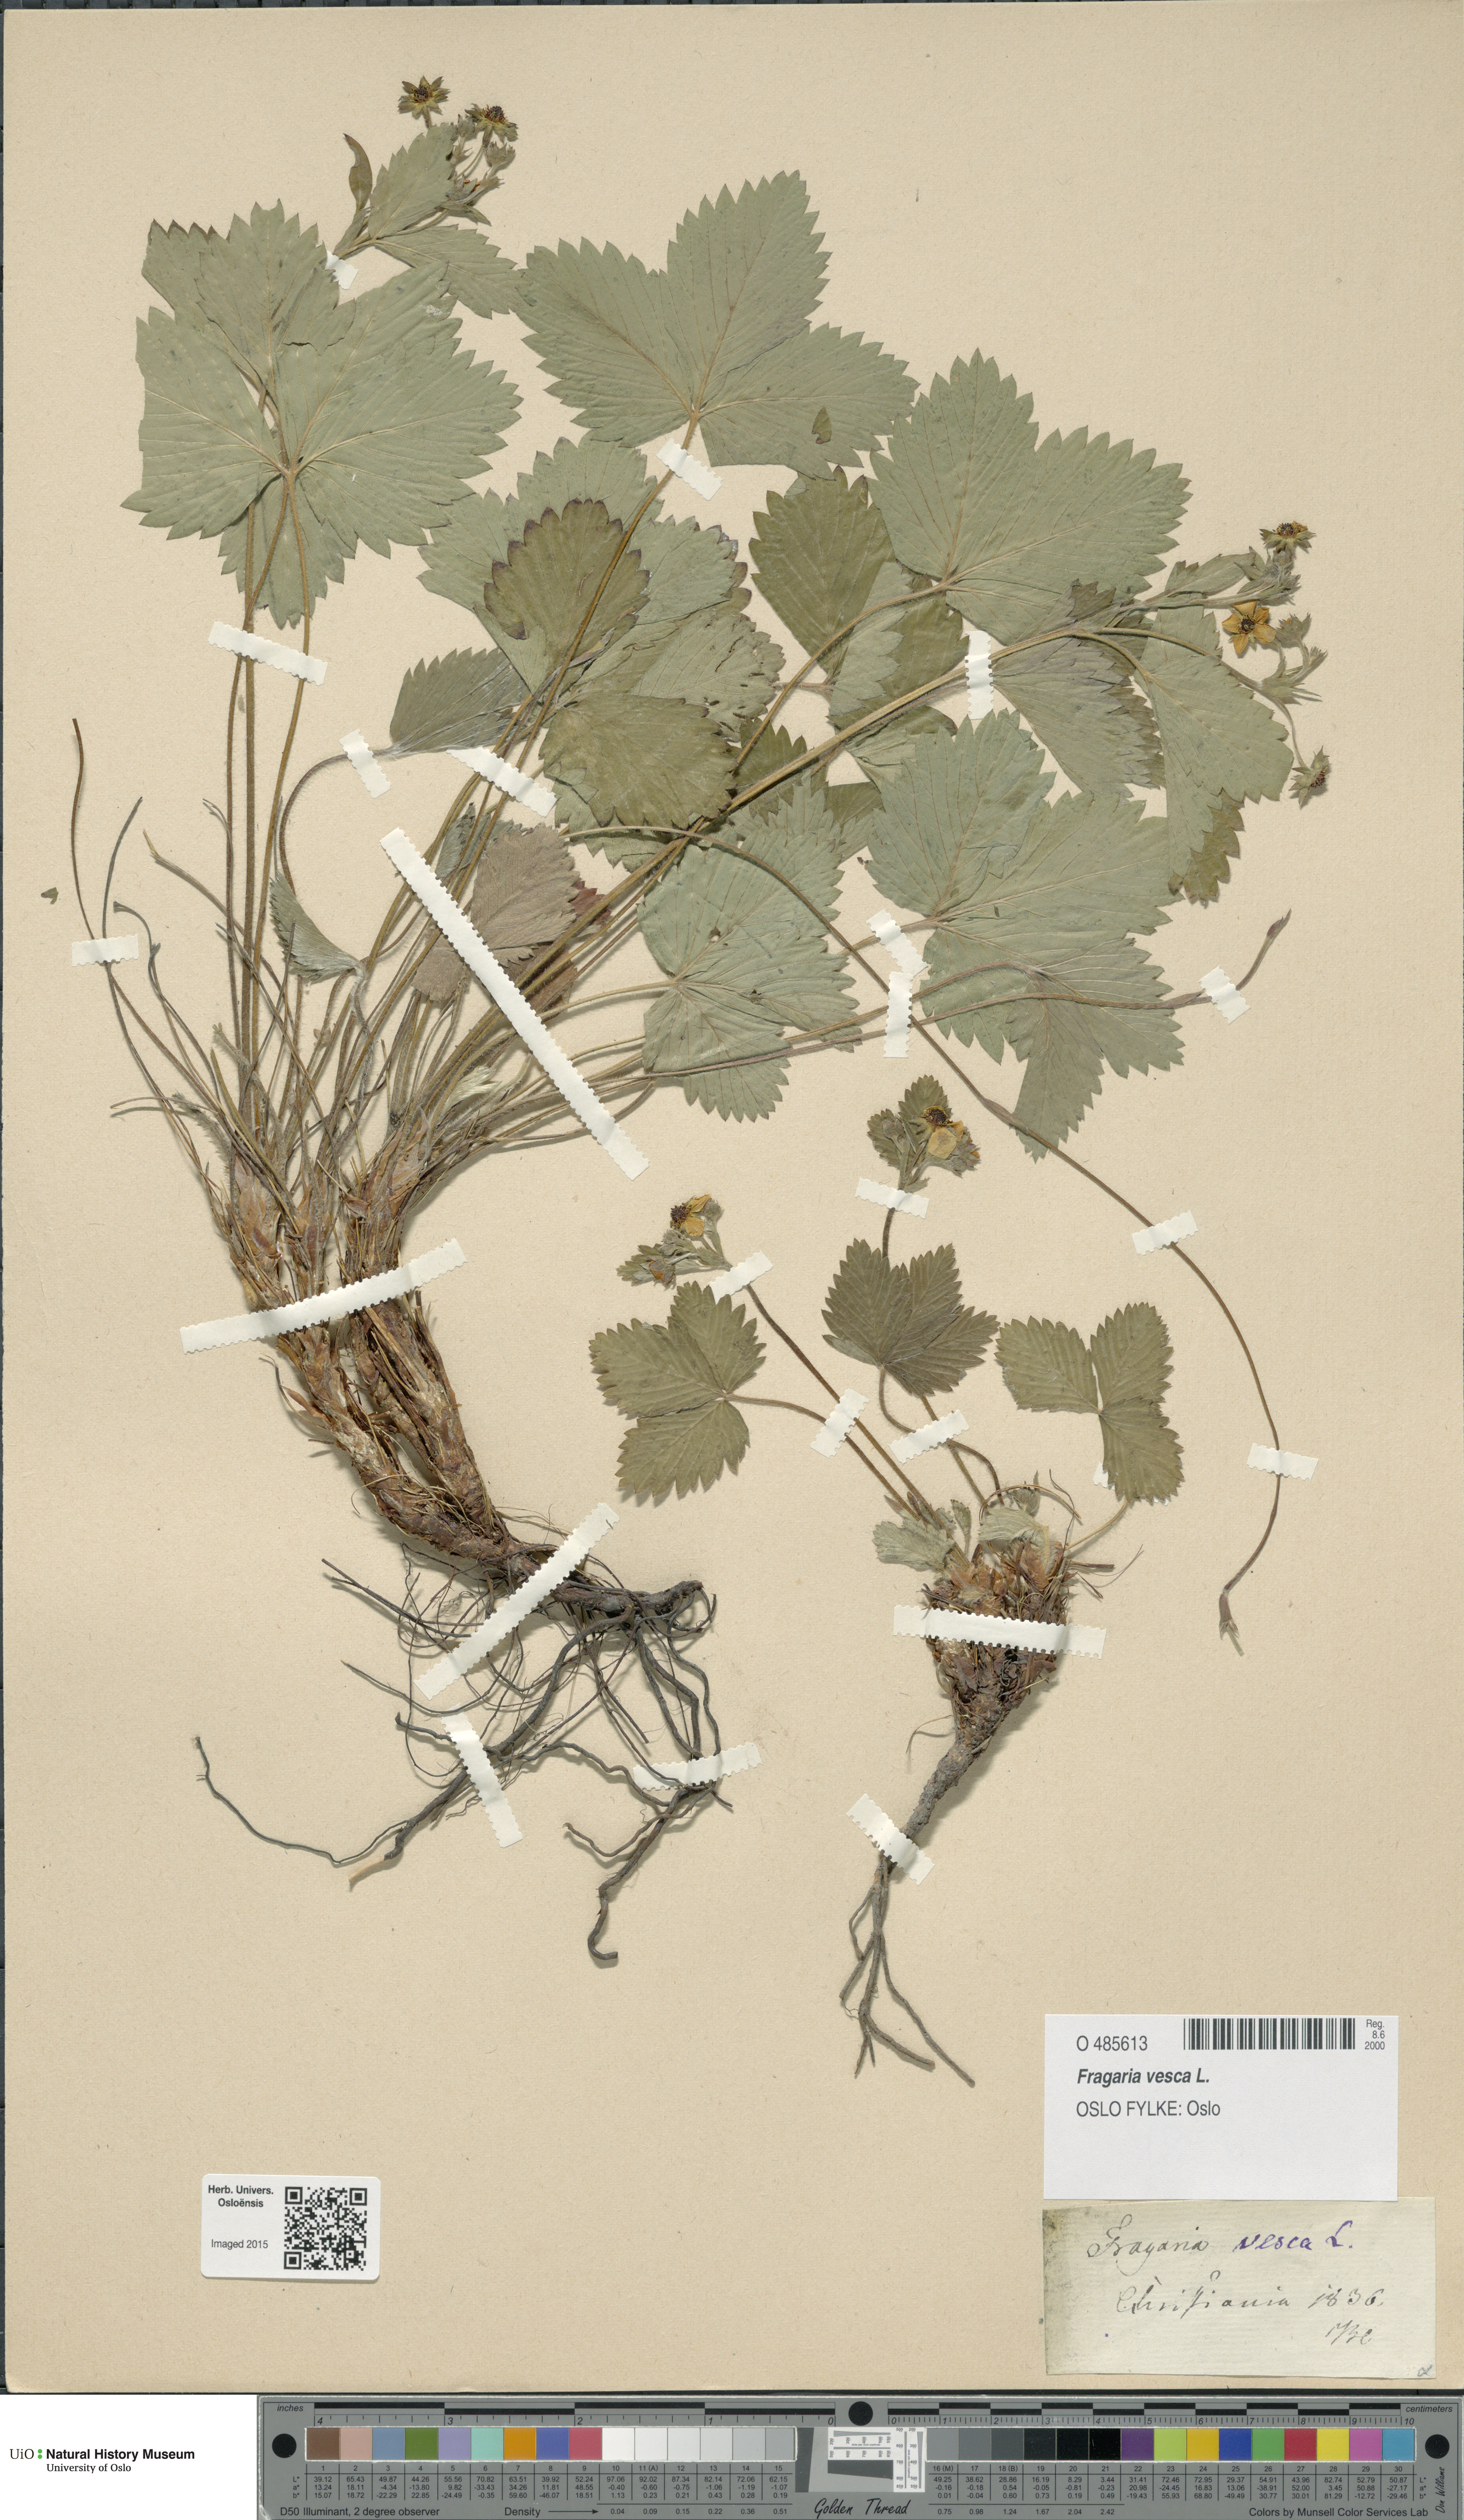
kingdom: Plantae
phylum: Tracheophyta
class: Magnoliopsida
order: Rosales
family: Rosaceae
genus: Fragaria
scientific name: Fragaria vesca
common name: Wild strawberry
